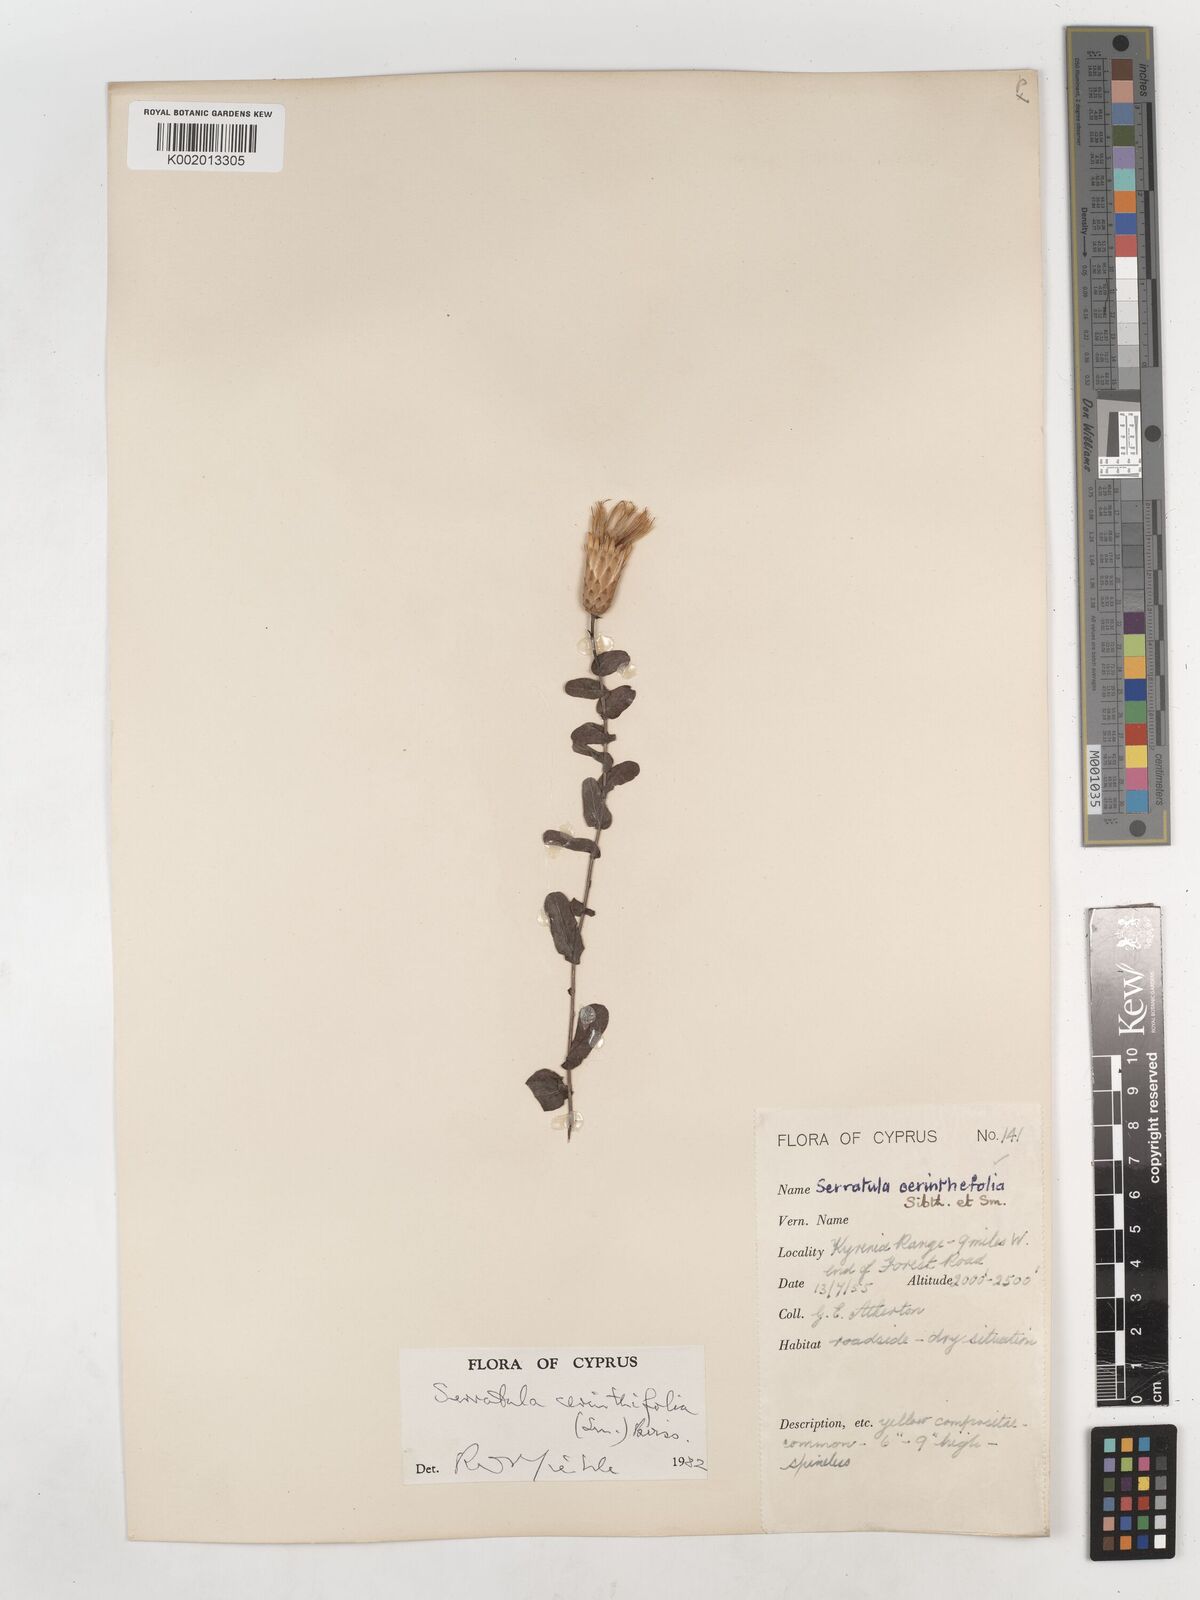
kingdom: Plantae
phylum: Tracheophyta
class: Magnoliopsida
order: Asterales
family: Asteraceae
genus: Klasea
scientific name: Klasea cerinthifolia
